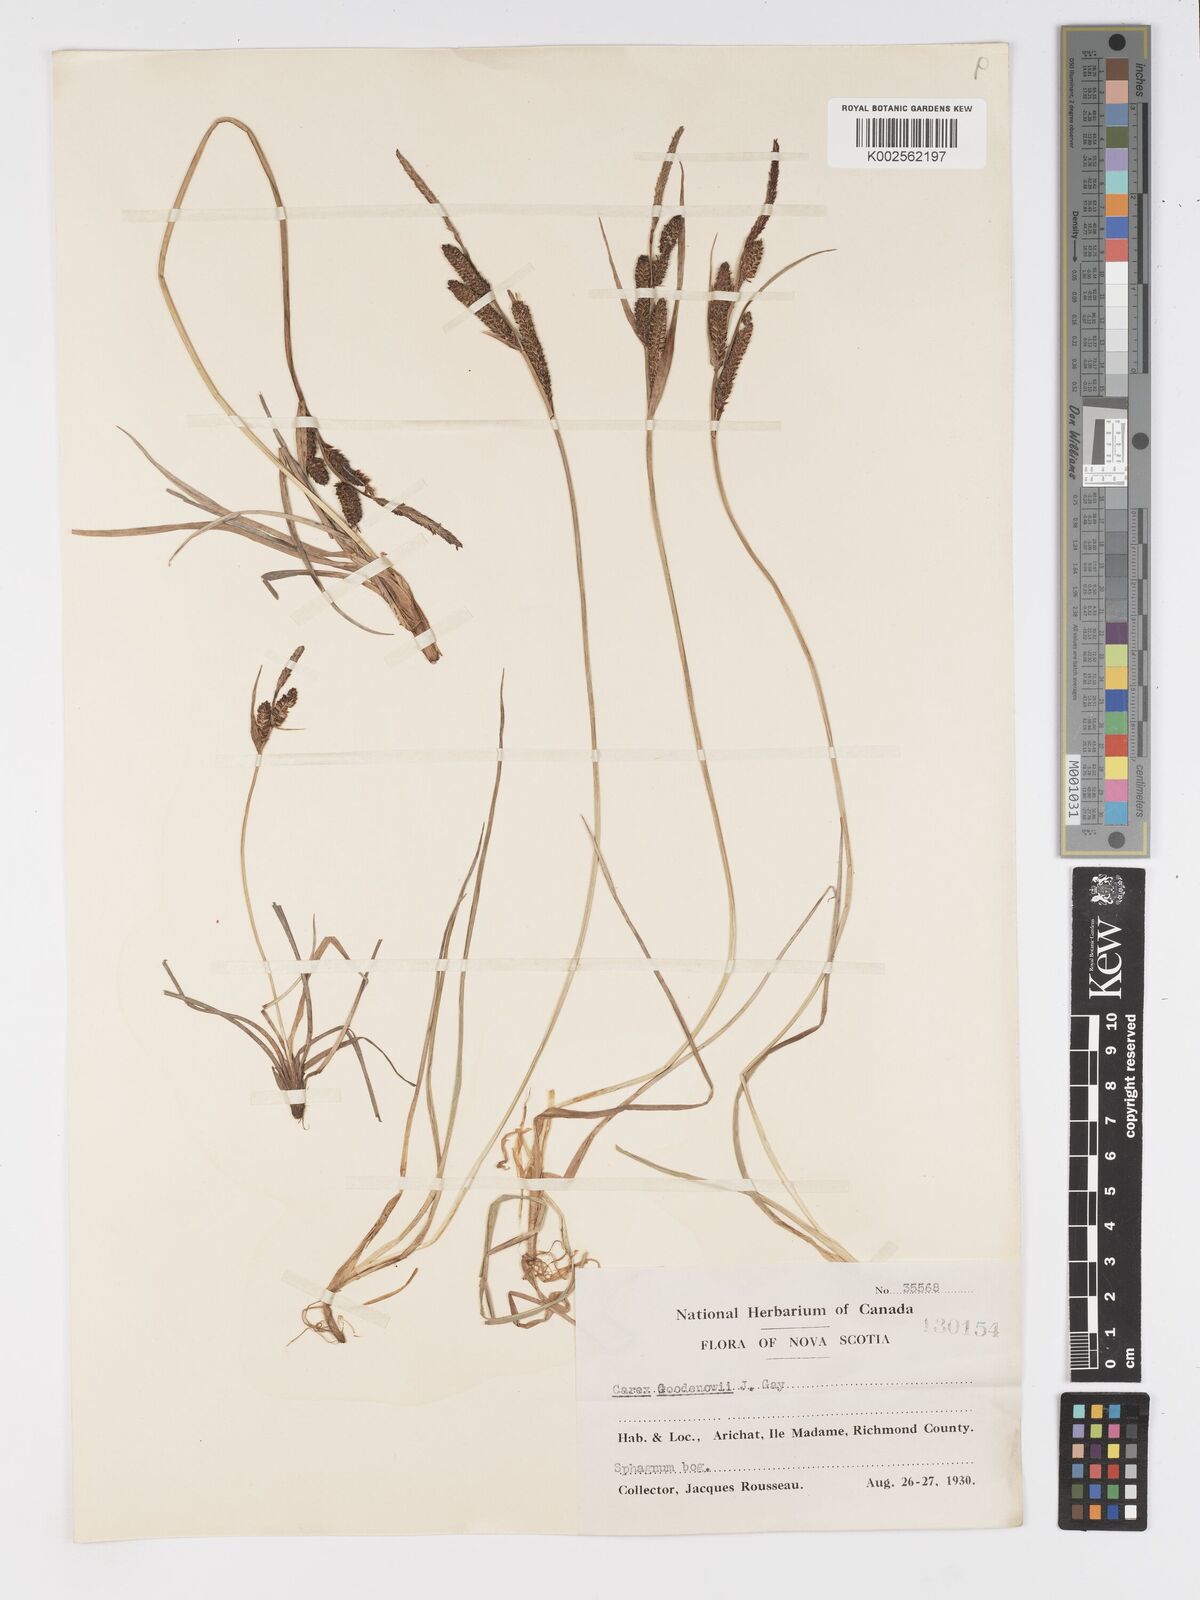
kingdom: Plantae
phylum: Tracheophyta
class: Liliopsida
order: Poales
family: Cyperaceae
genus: Carex
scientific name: Carex nigra
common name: Common sedge
